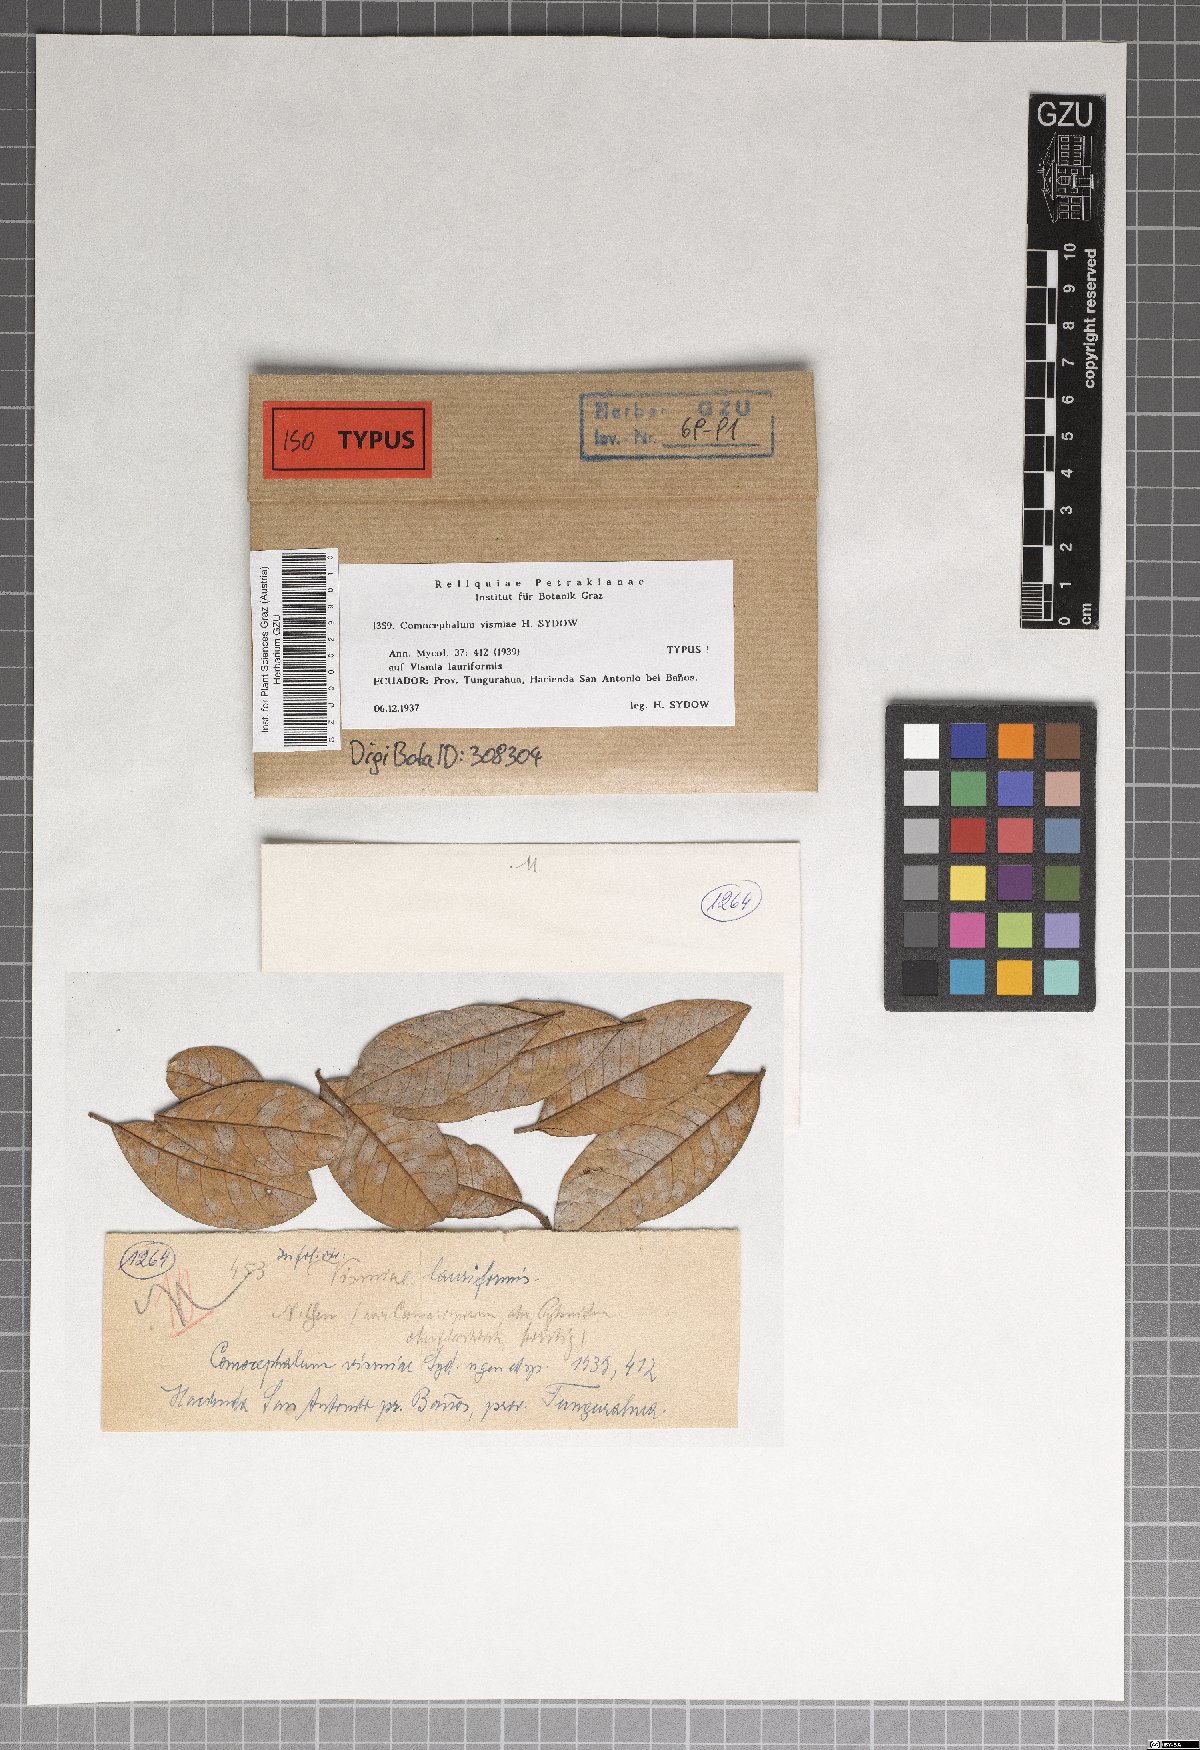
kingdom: Fungi
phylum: Ascomycota
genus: Comocephalum
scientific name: Comocephalum vismiae
